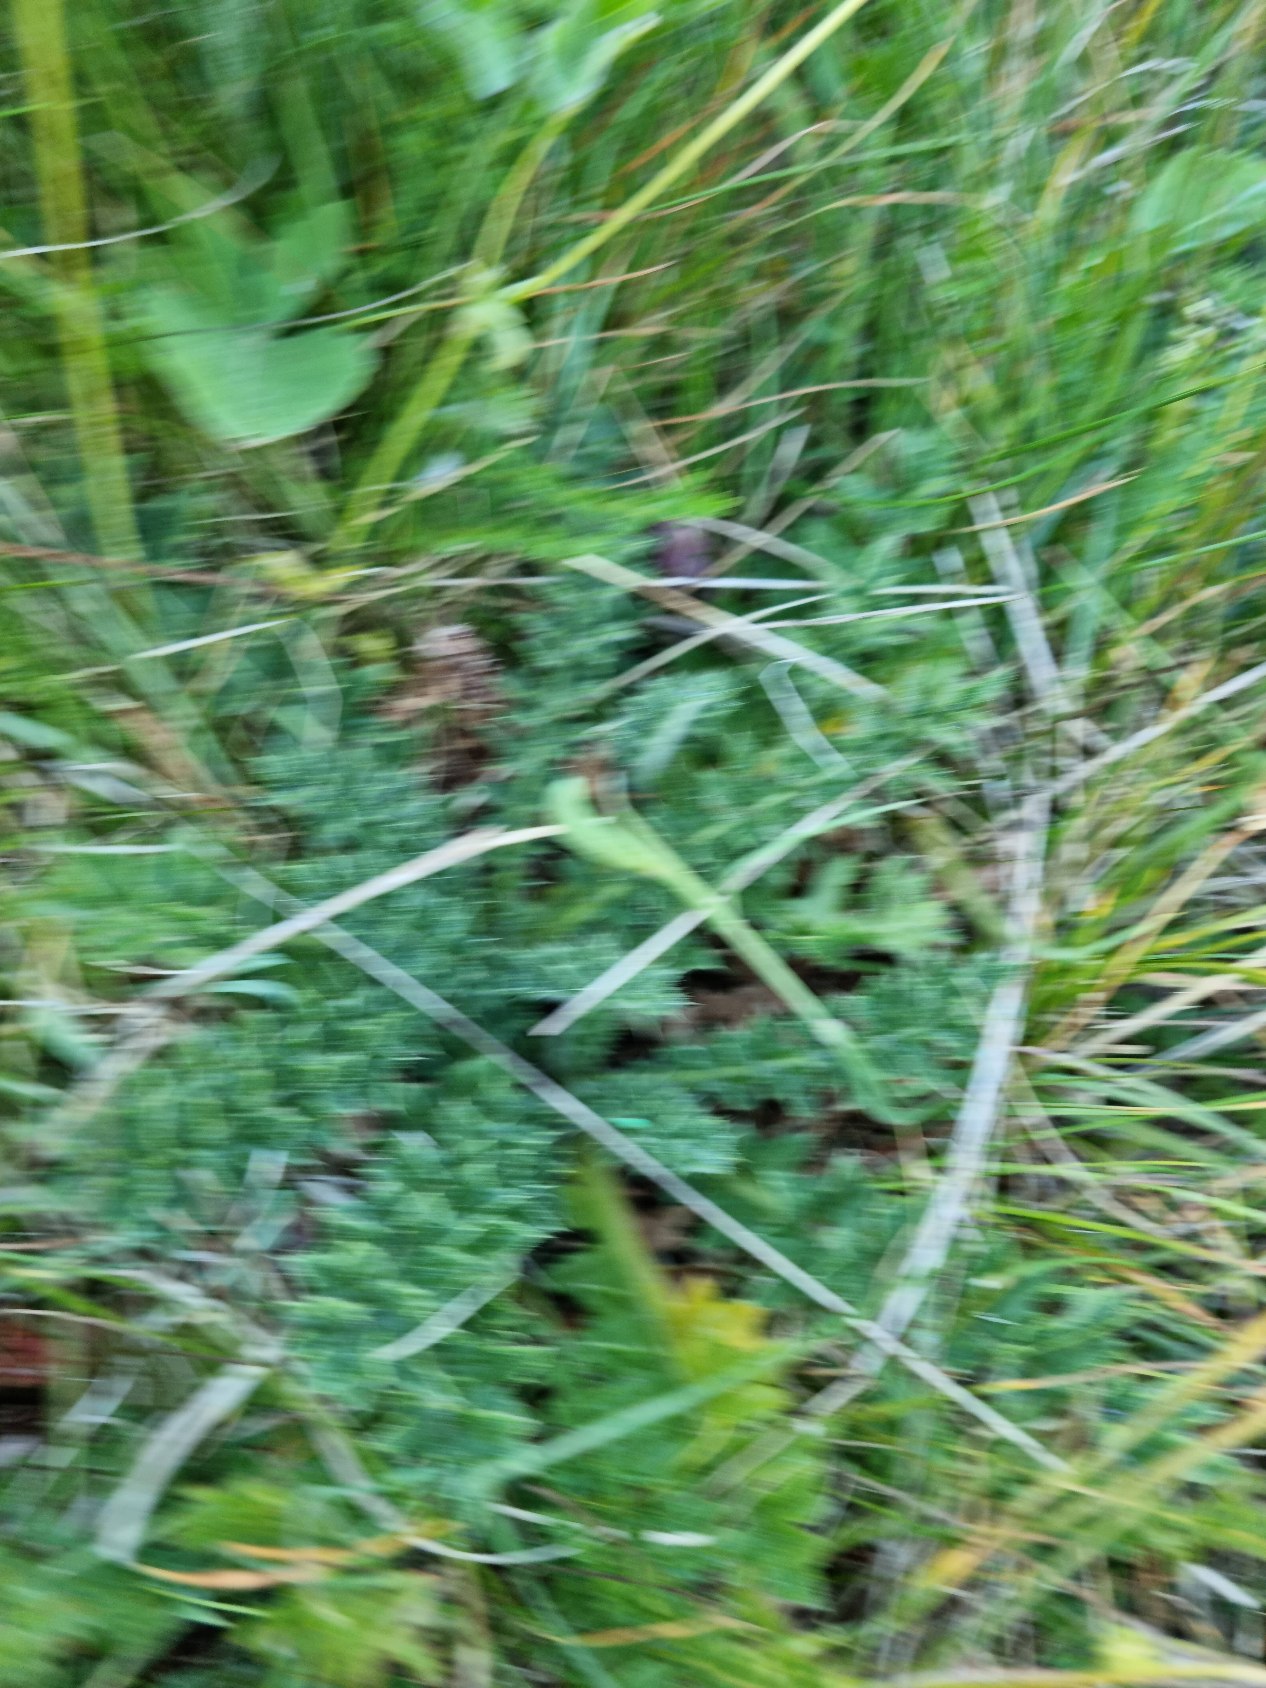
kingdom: Plantae
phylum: Tracheophyta
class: Magnoliopsida
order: Asterales
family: Asteraceae
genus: Cirsium
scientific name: Cirsium acaule
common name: Lav tidsel
